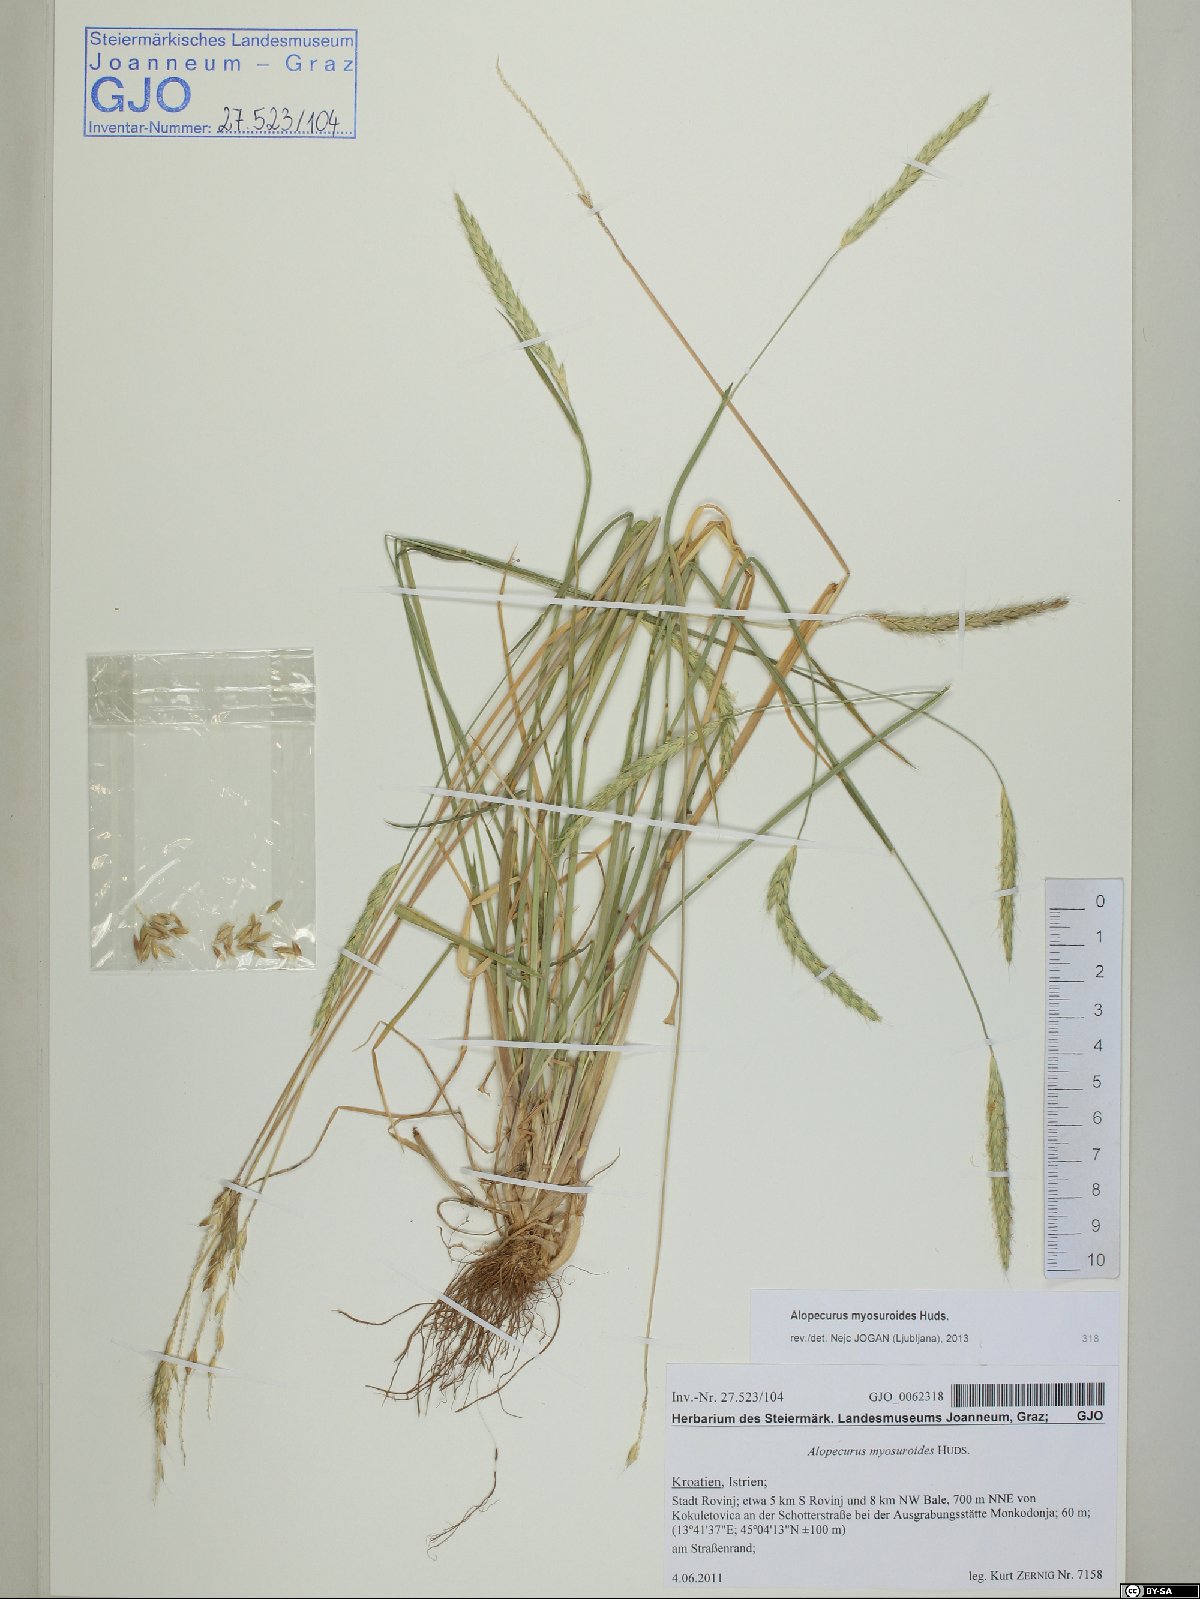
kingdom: Plantae
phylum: Tracheophyta
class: Liliopsida
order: Poales
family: Poaceae
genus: Alopecurus
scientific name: Alopecurus myosuroides
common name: Black-grass
